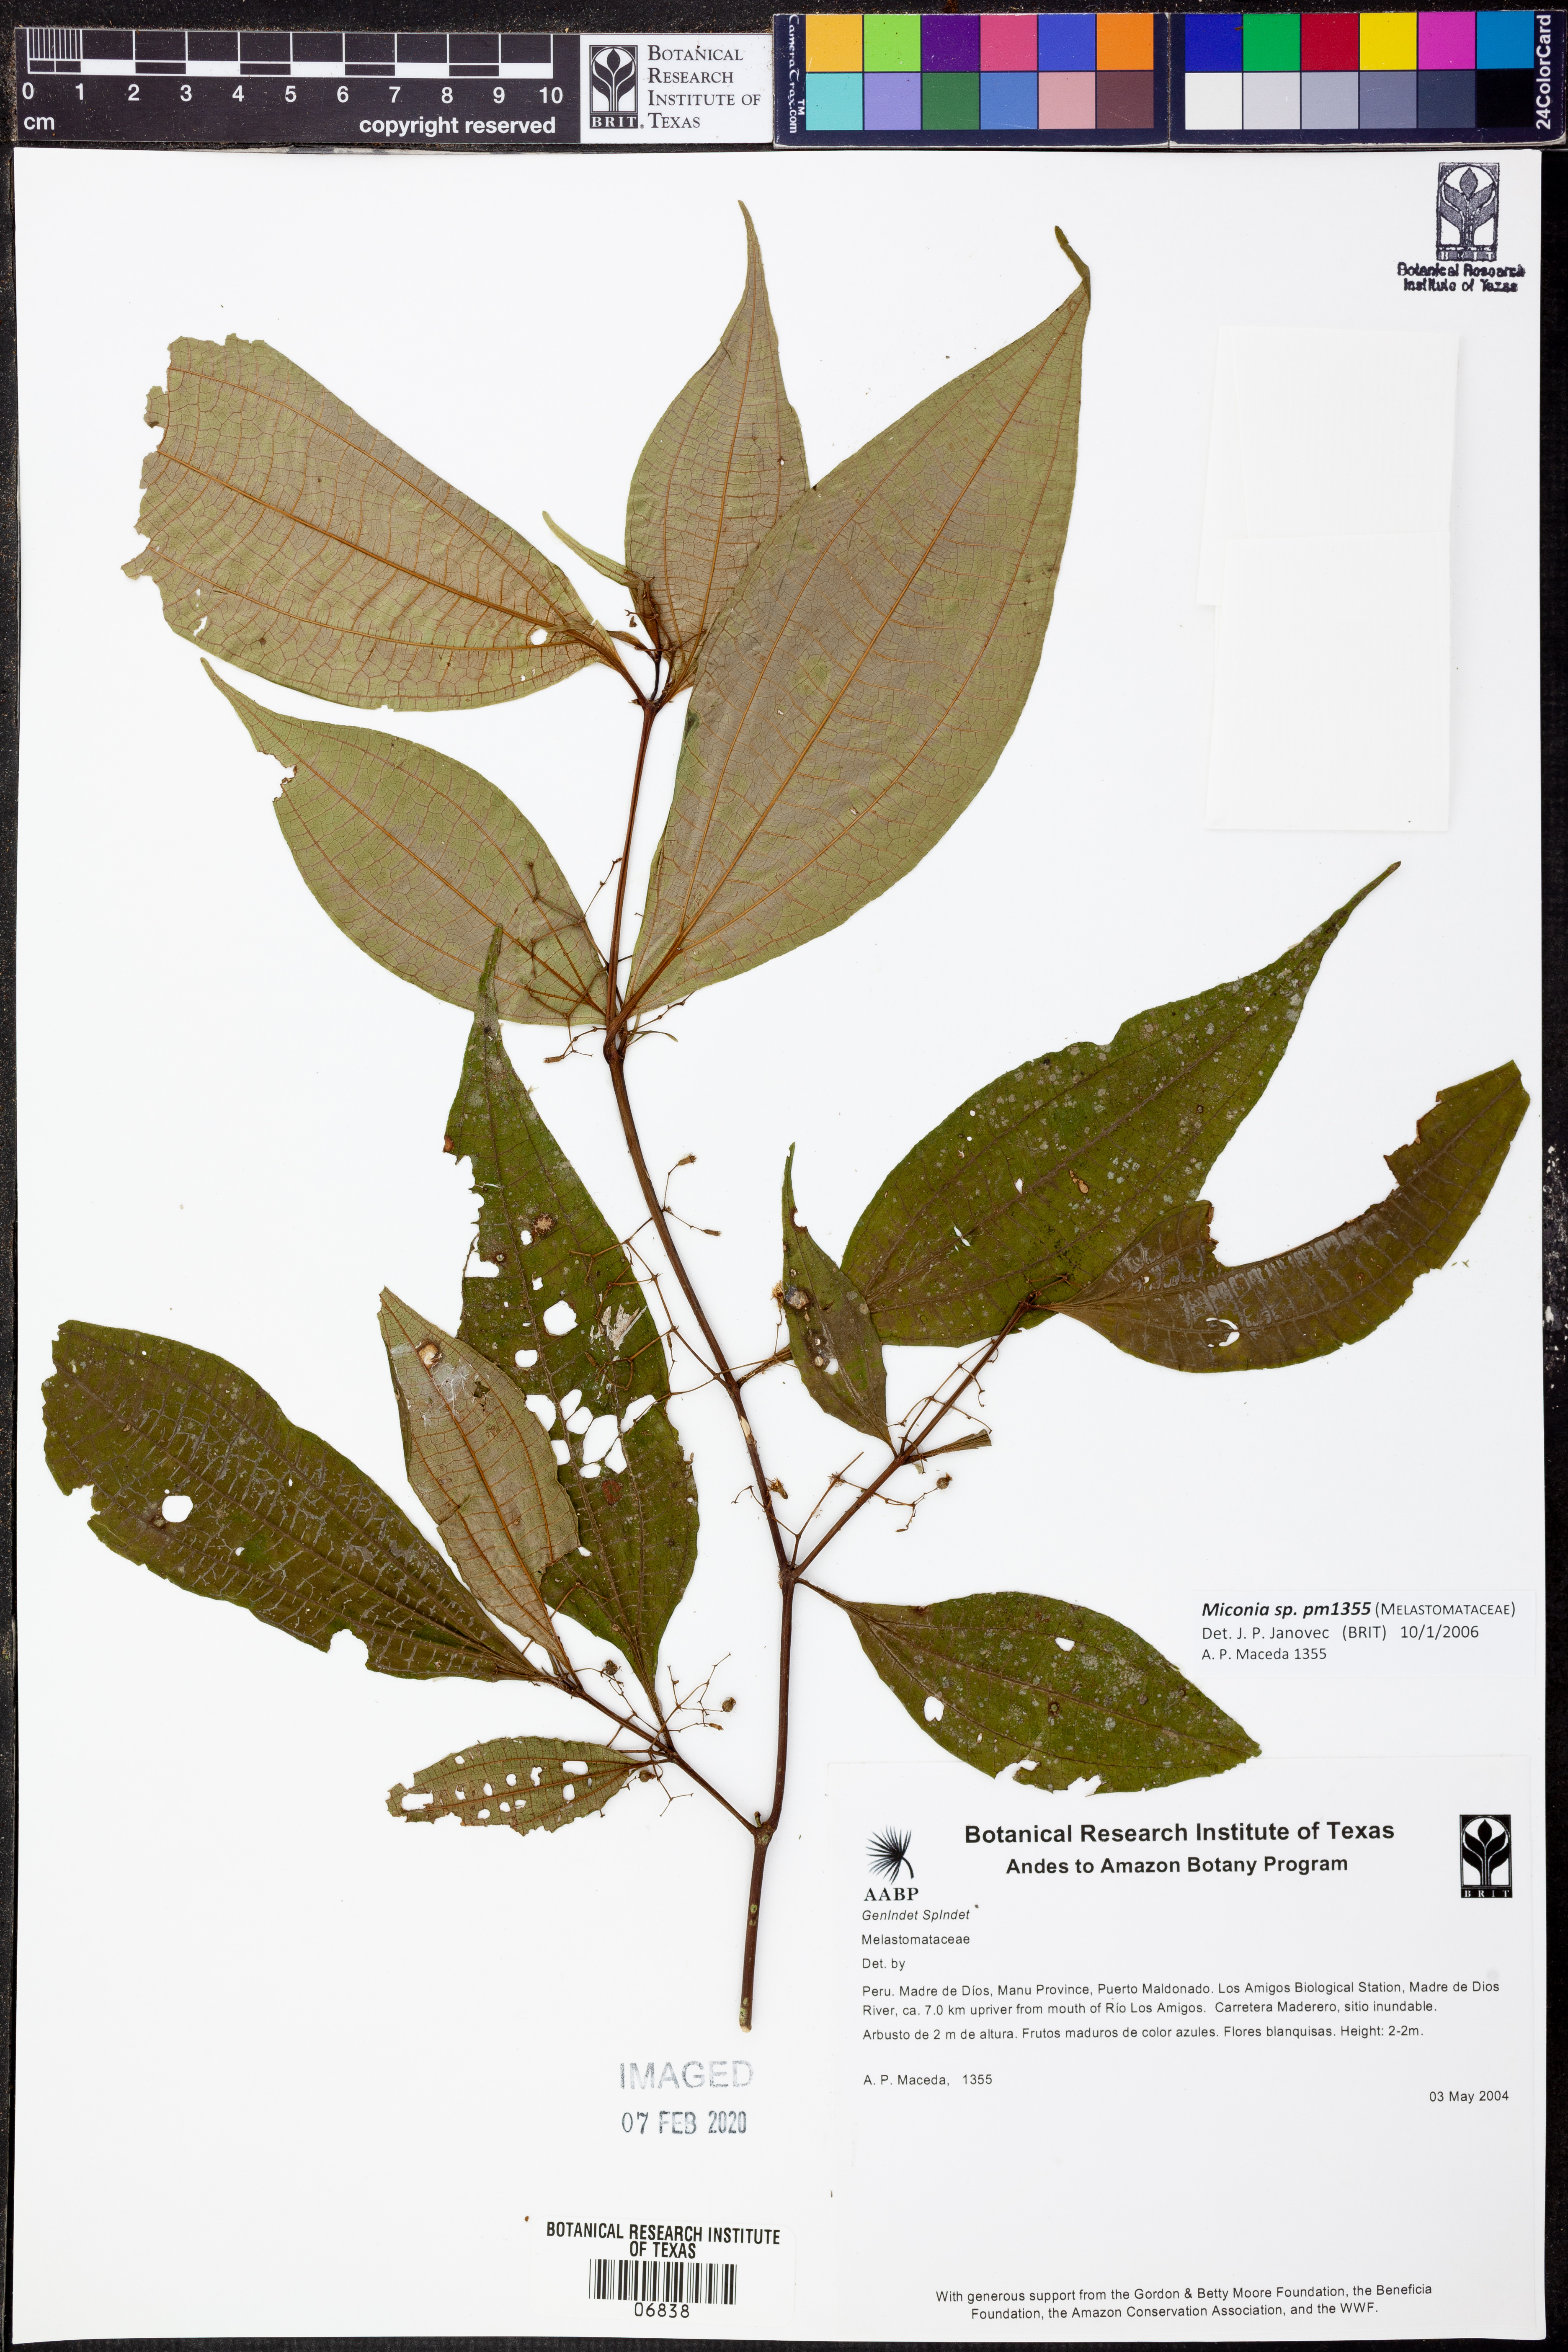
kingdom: Plantae
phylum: Tracheophyta
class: Magnoliopsida
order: Myrtales
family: Melastomataceae
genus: Miconia
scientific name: Miconia
